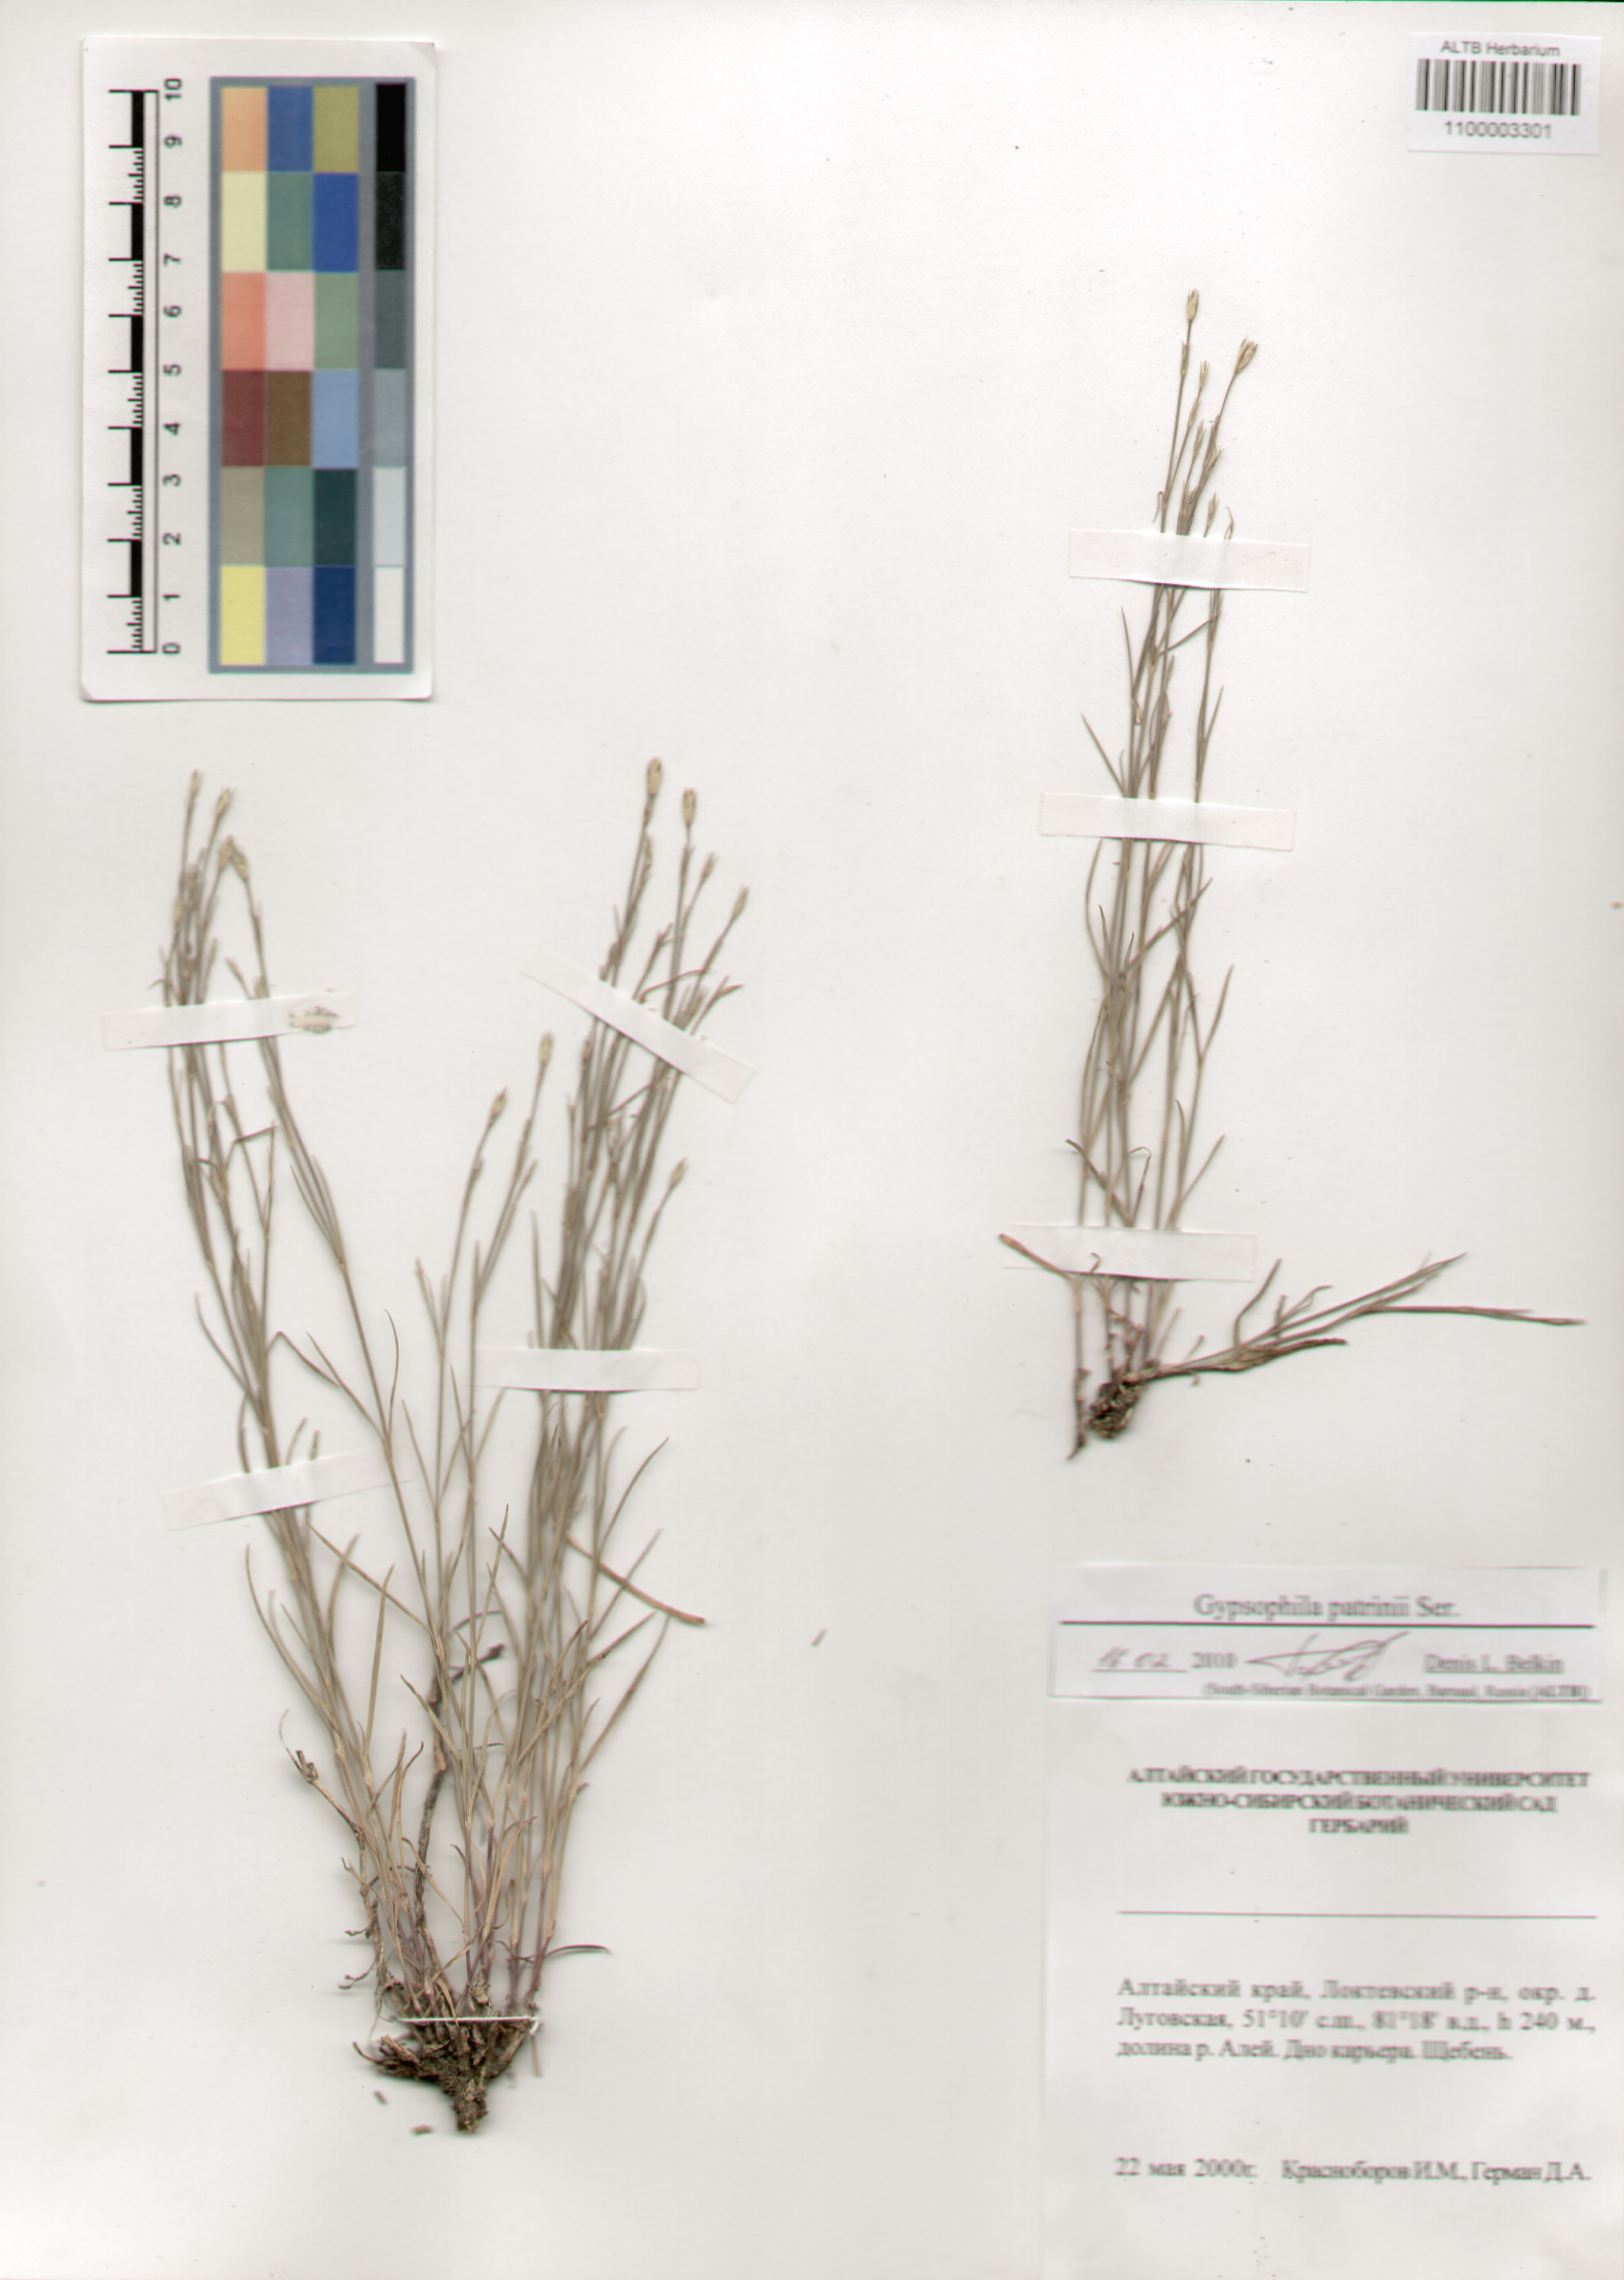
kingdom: Plantae
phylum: Tracheophyta
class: Magnoliopsida
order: Caryophyllales
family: Caryophyllaceae
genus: Gypsophila
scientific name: Gypsophila patrinii
